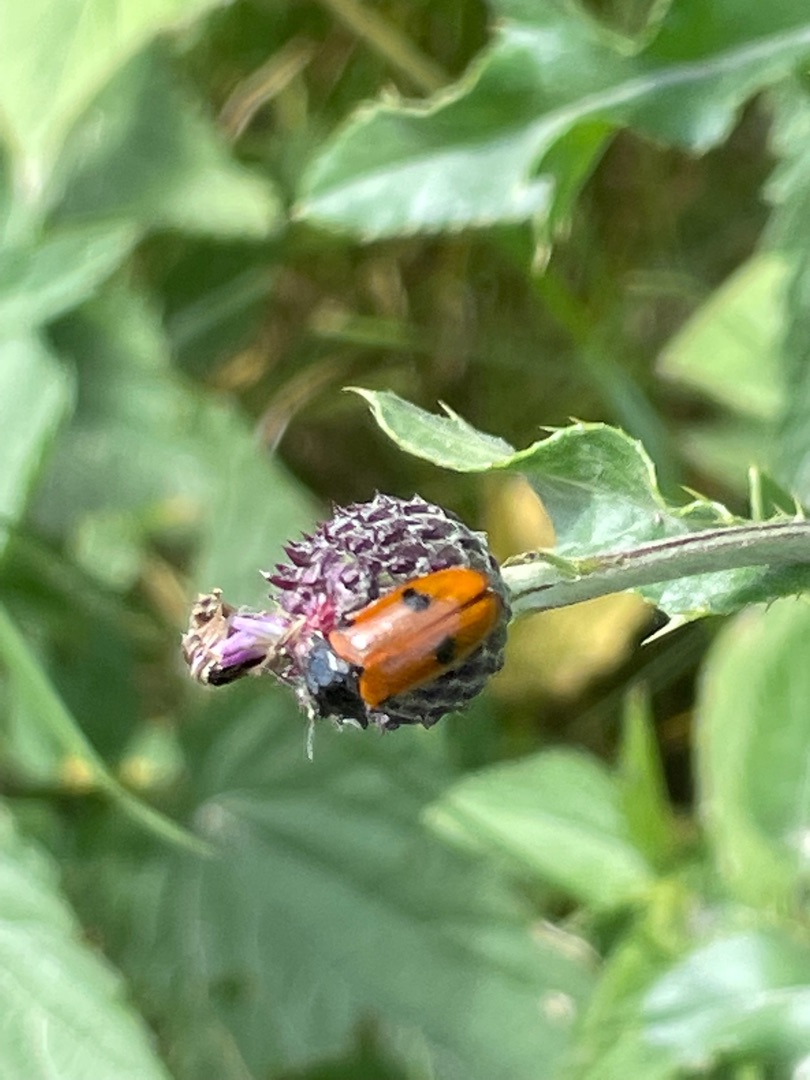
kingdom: Animalia
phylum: Arthropoda
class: Insecta
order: Coleoptera
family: Chrysomelidae
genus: Clytra
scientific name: Clytra quadripunctata
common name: Myrebladbille
